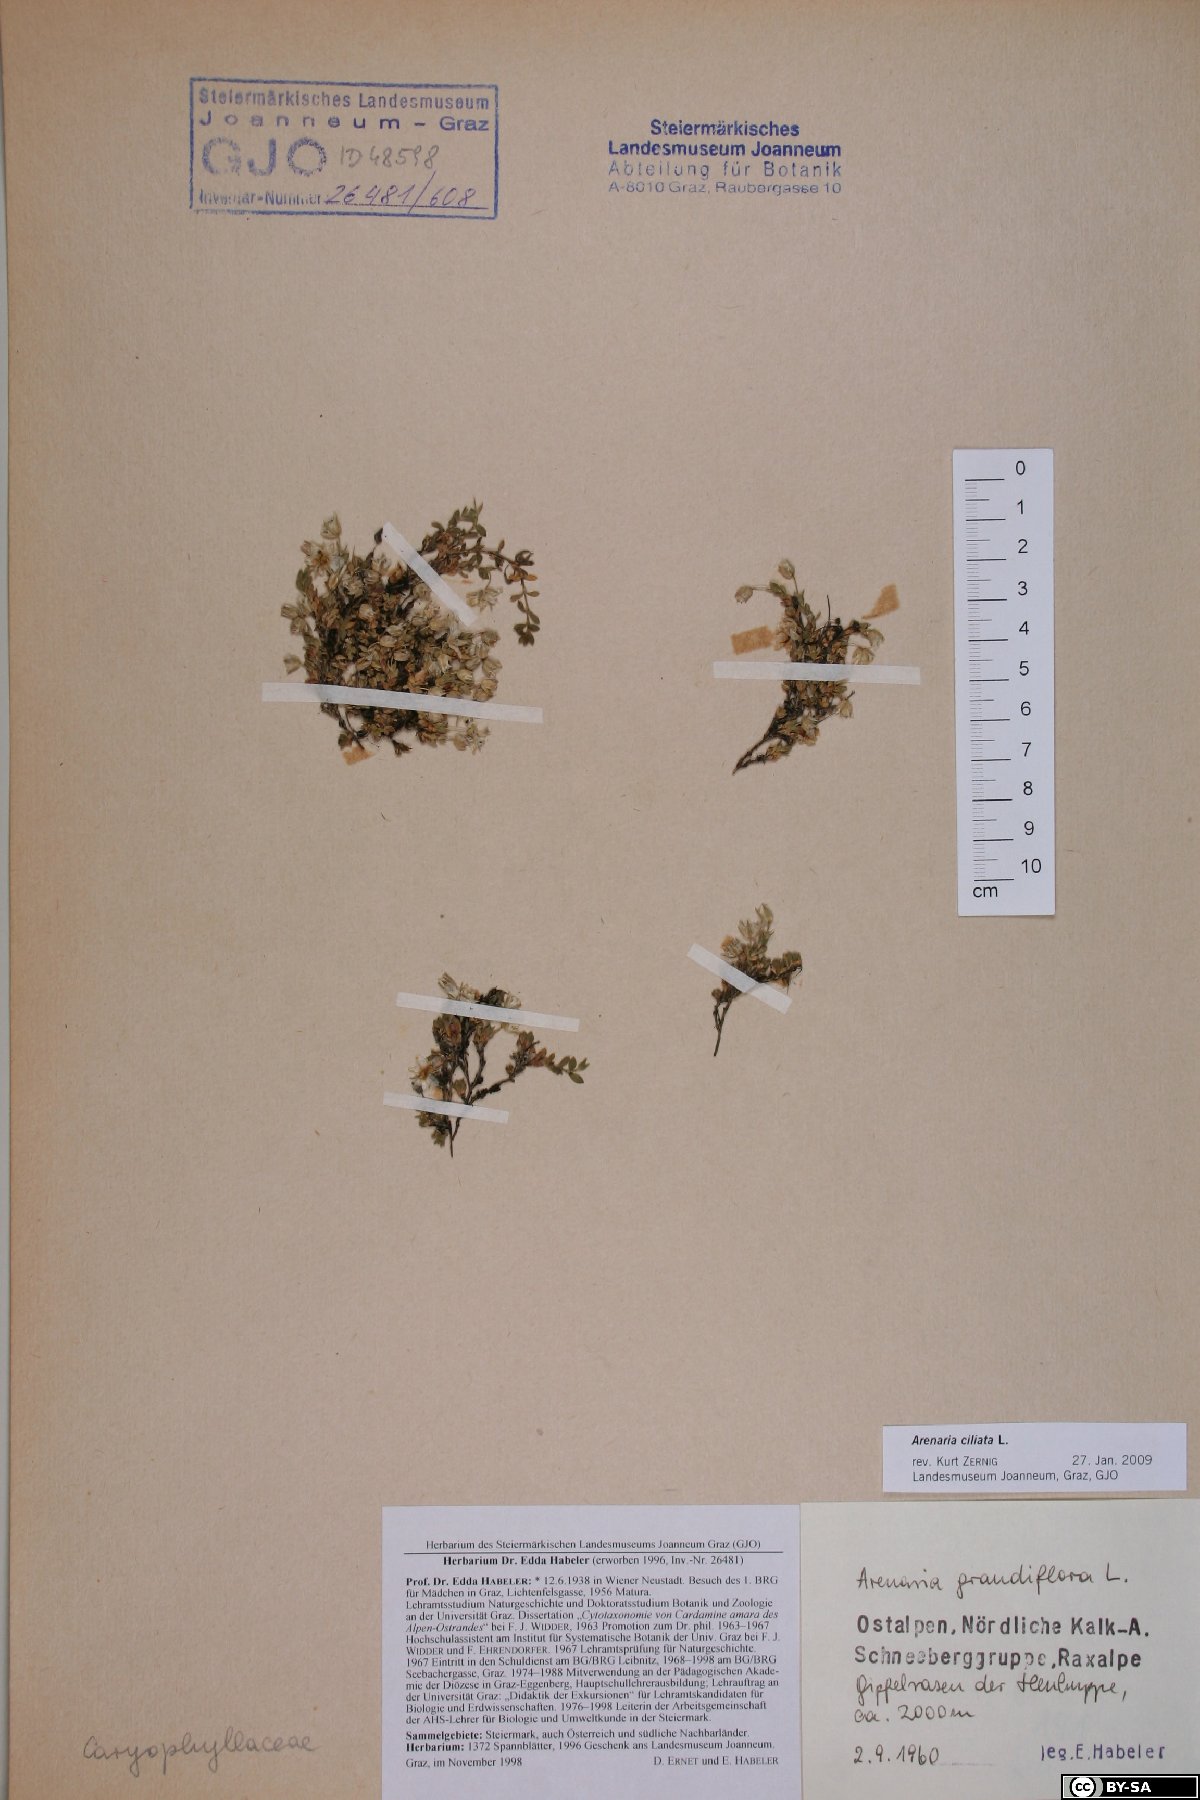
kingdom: Plantae
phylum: Tracheophyta
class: Magnoliopsida
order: Caryophyllales
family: Caryophyllaceae
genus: Arenaria
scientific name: Arenaria ciliata
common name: Fringed sandwort
